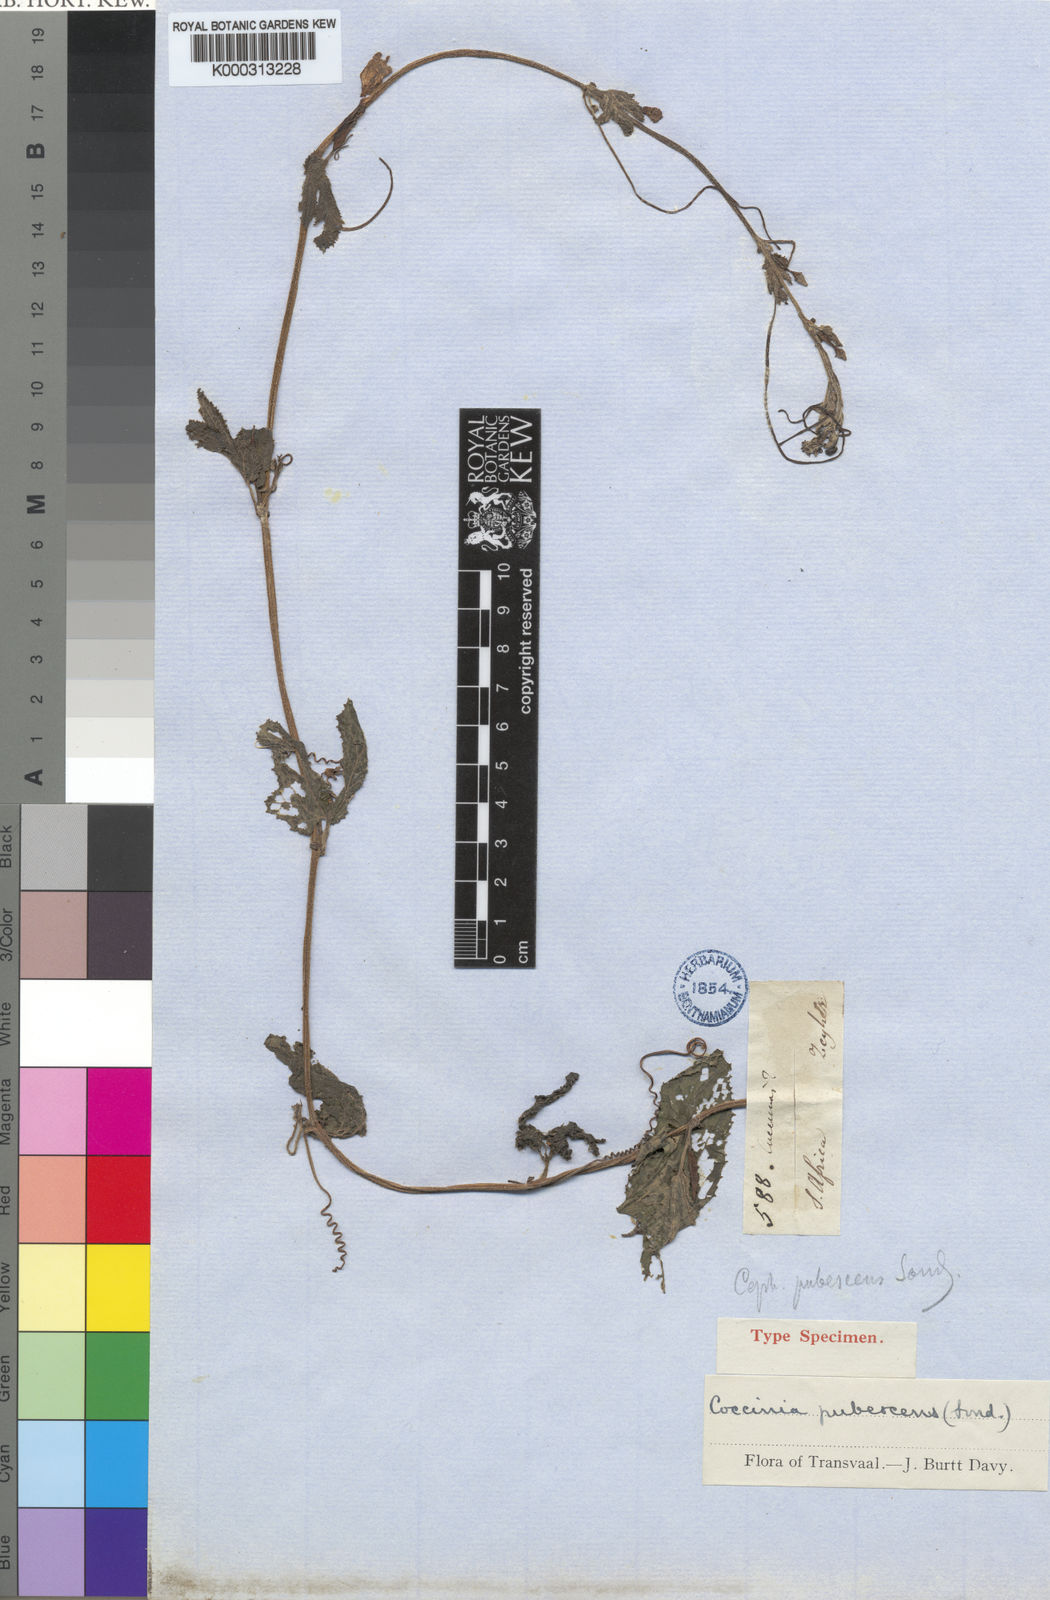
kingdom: Plantae
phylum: Tracheophyta
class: Magnoliopsida
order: Cucurbitales
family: Cucurbitaceae
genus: Coccinia
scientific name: Coccinia adoensis
